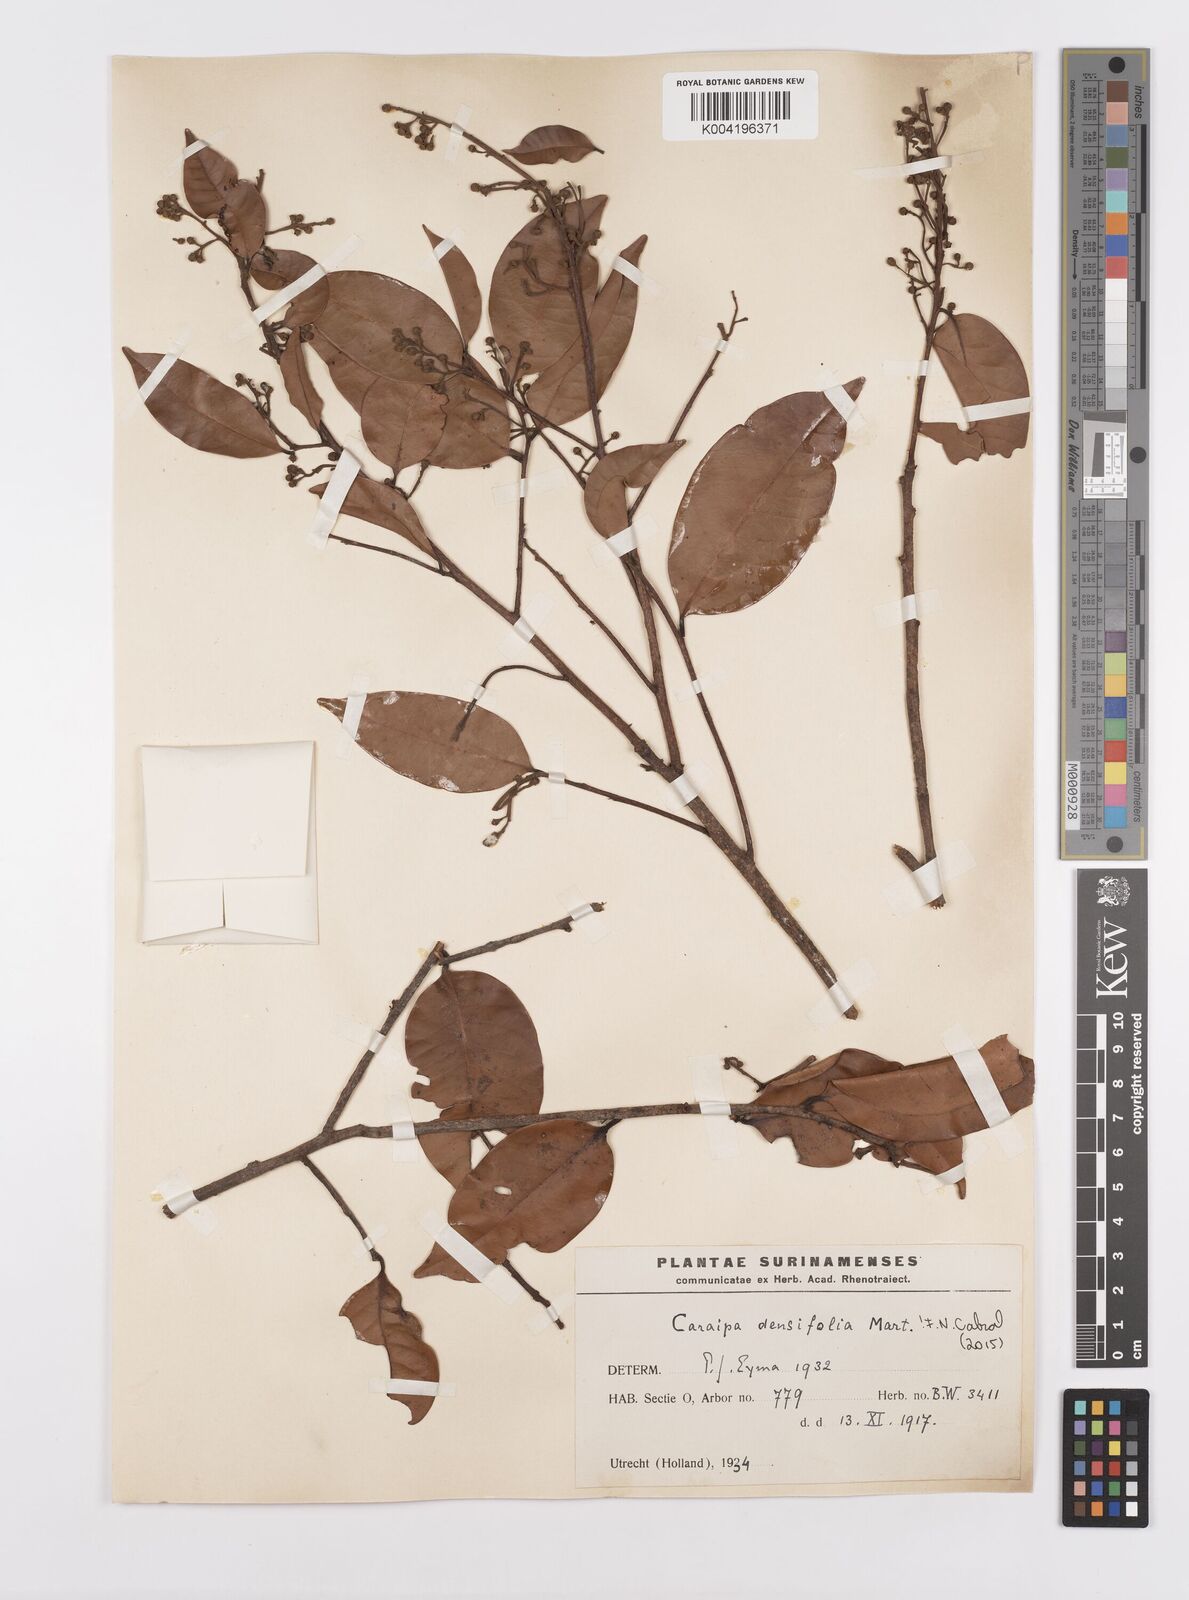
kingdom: Plantae
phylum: Tracheophyta
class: Magnoliopsida
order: Malpighiales
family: Calophyllaceae
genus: Caraipa
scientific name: Caraipa densifolia
